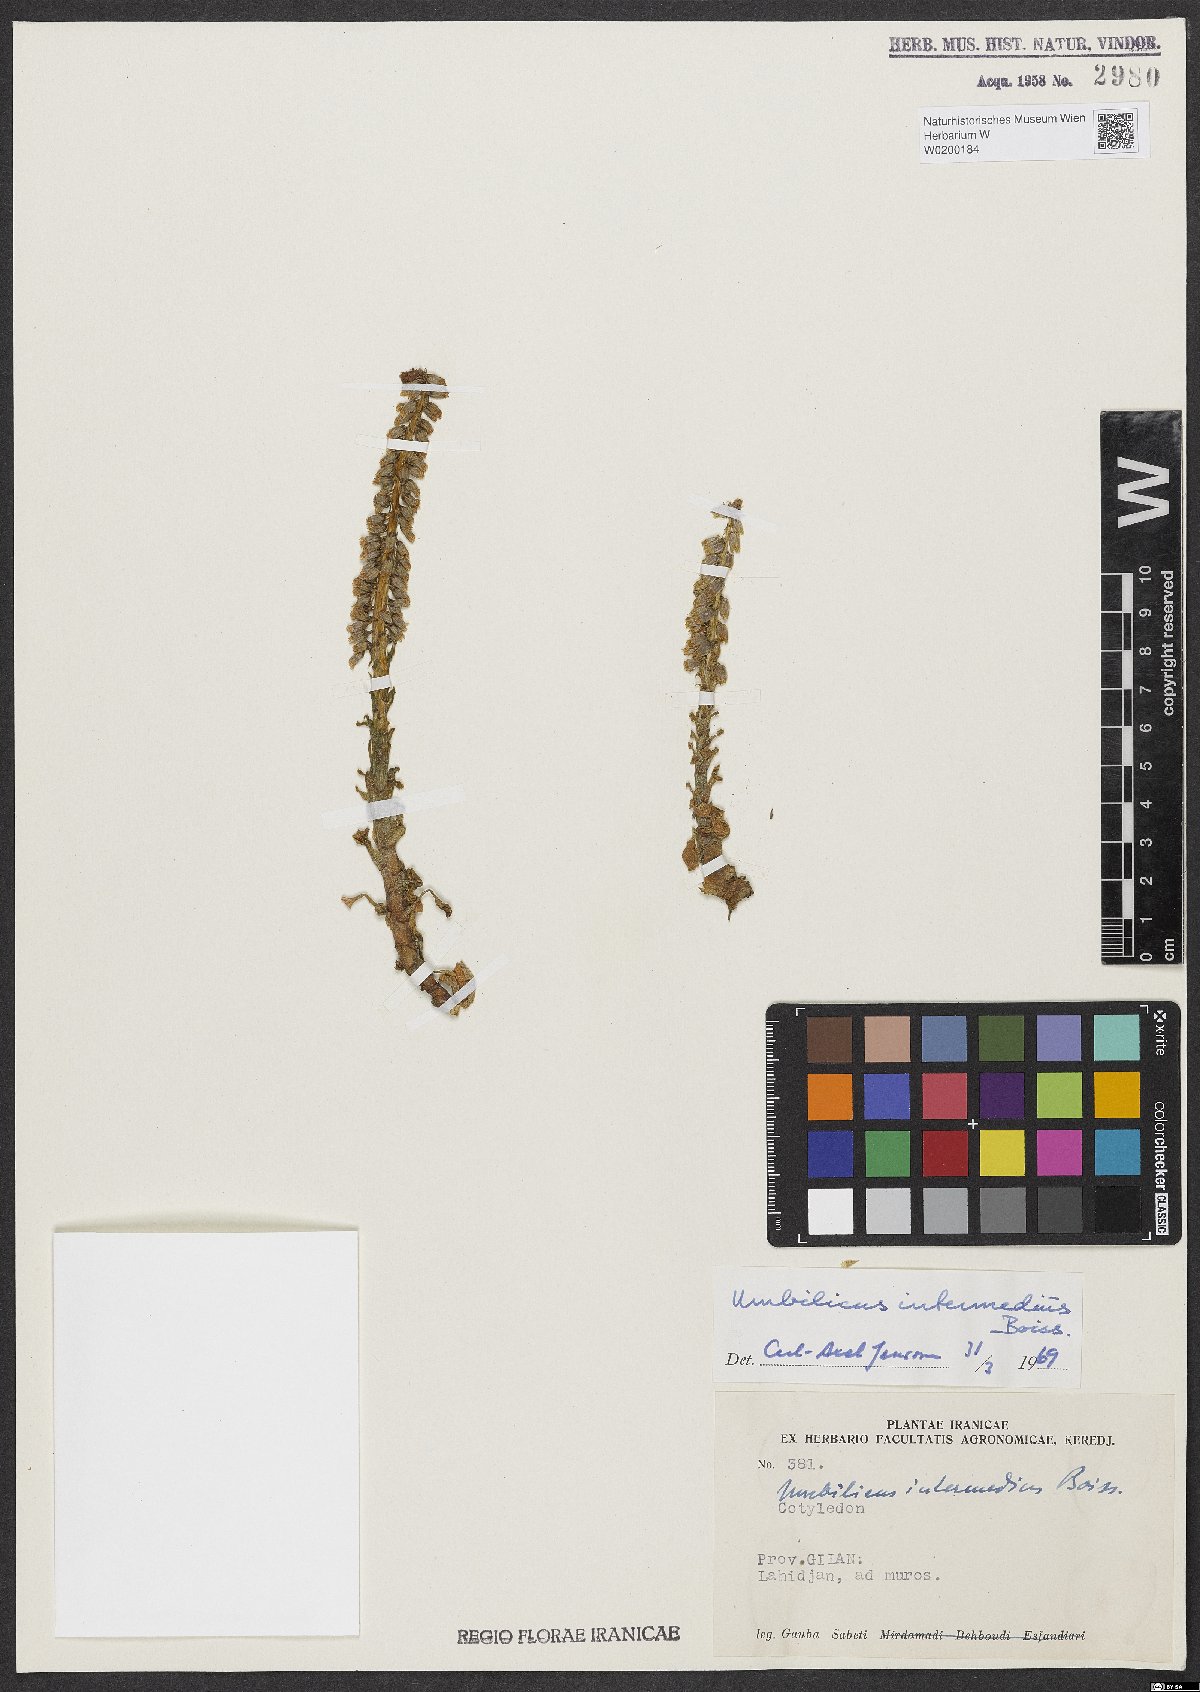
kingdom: Plantae
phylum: Tracheophyta
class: Magnoliopsida
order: Saxifragales
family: Crassulaceae
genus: Umbilicus
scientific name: Umbilicus horizontalis
